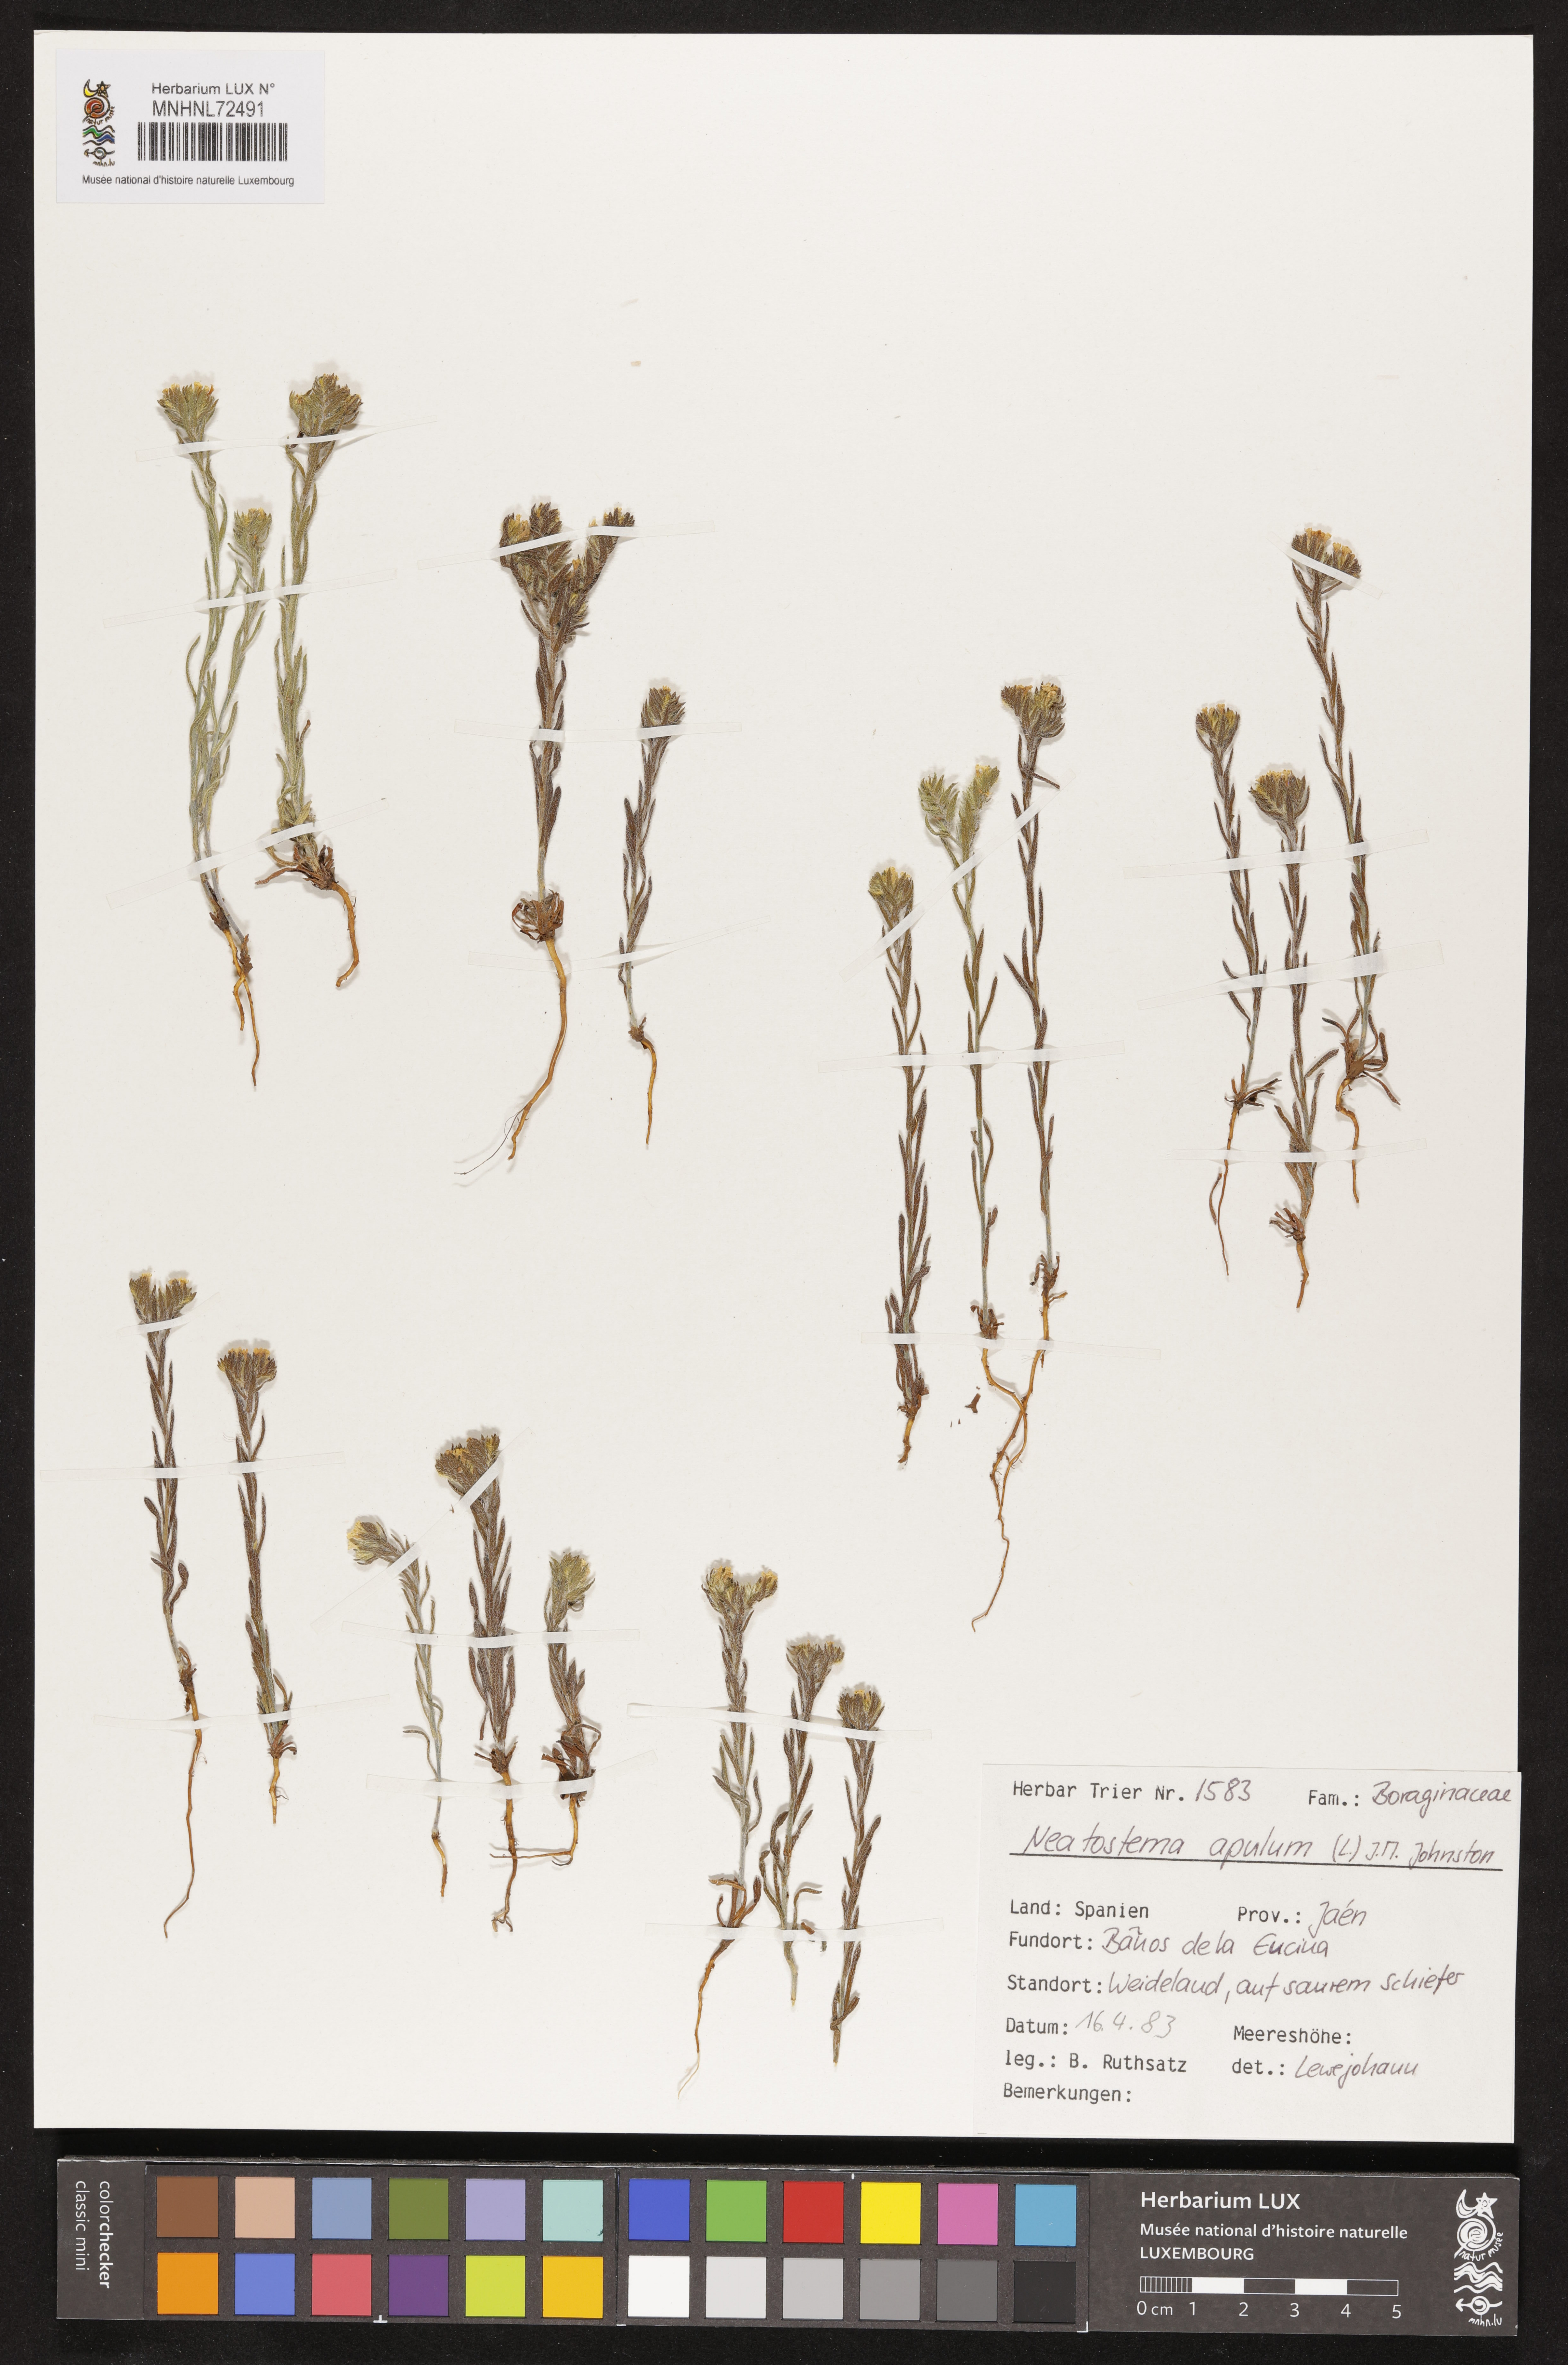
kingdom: Plantae
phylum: Tracheophyta
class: Magnoliopsida
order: Boraginales
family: Boraginaceae
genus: Neatostema
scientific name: Neatostema apulum
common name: Hairy sheepweed
